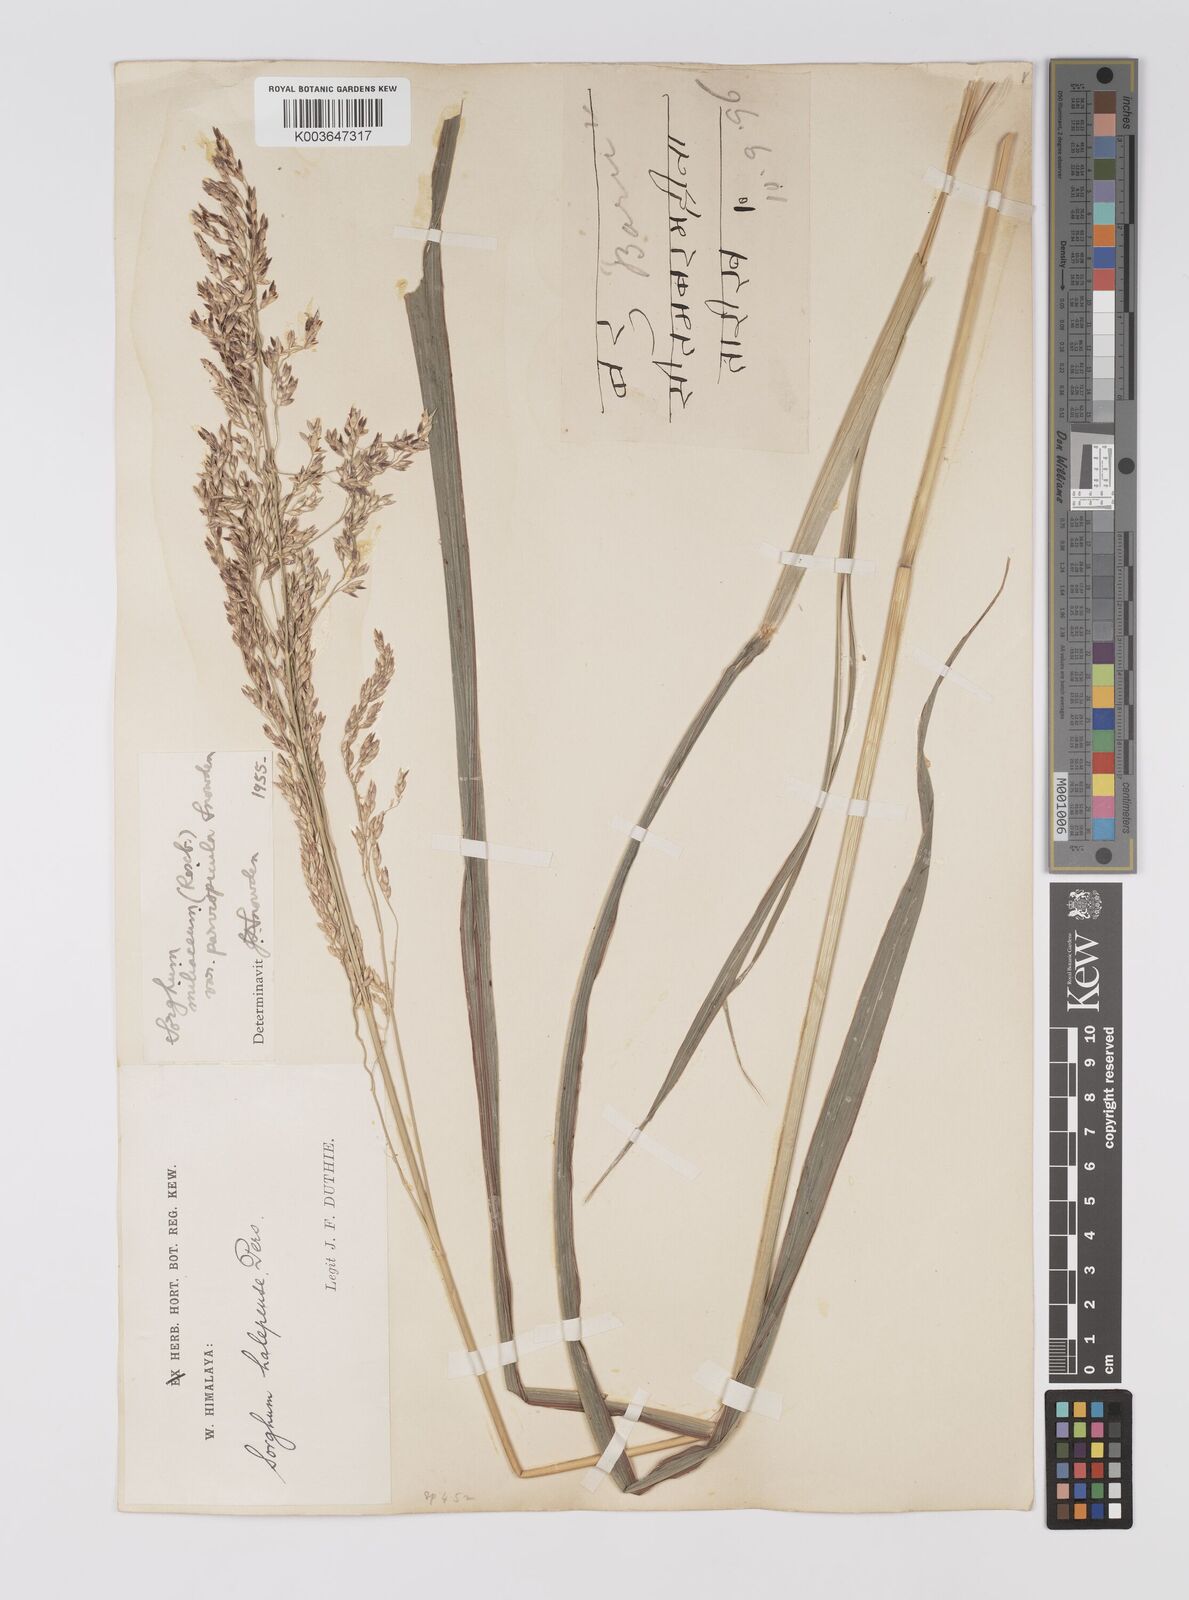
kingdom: Plantae
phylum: Tracheophyta
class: Liliopsida
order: Poales
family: Poaceae
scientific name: Poaceae
